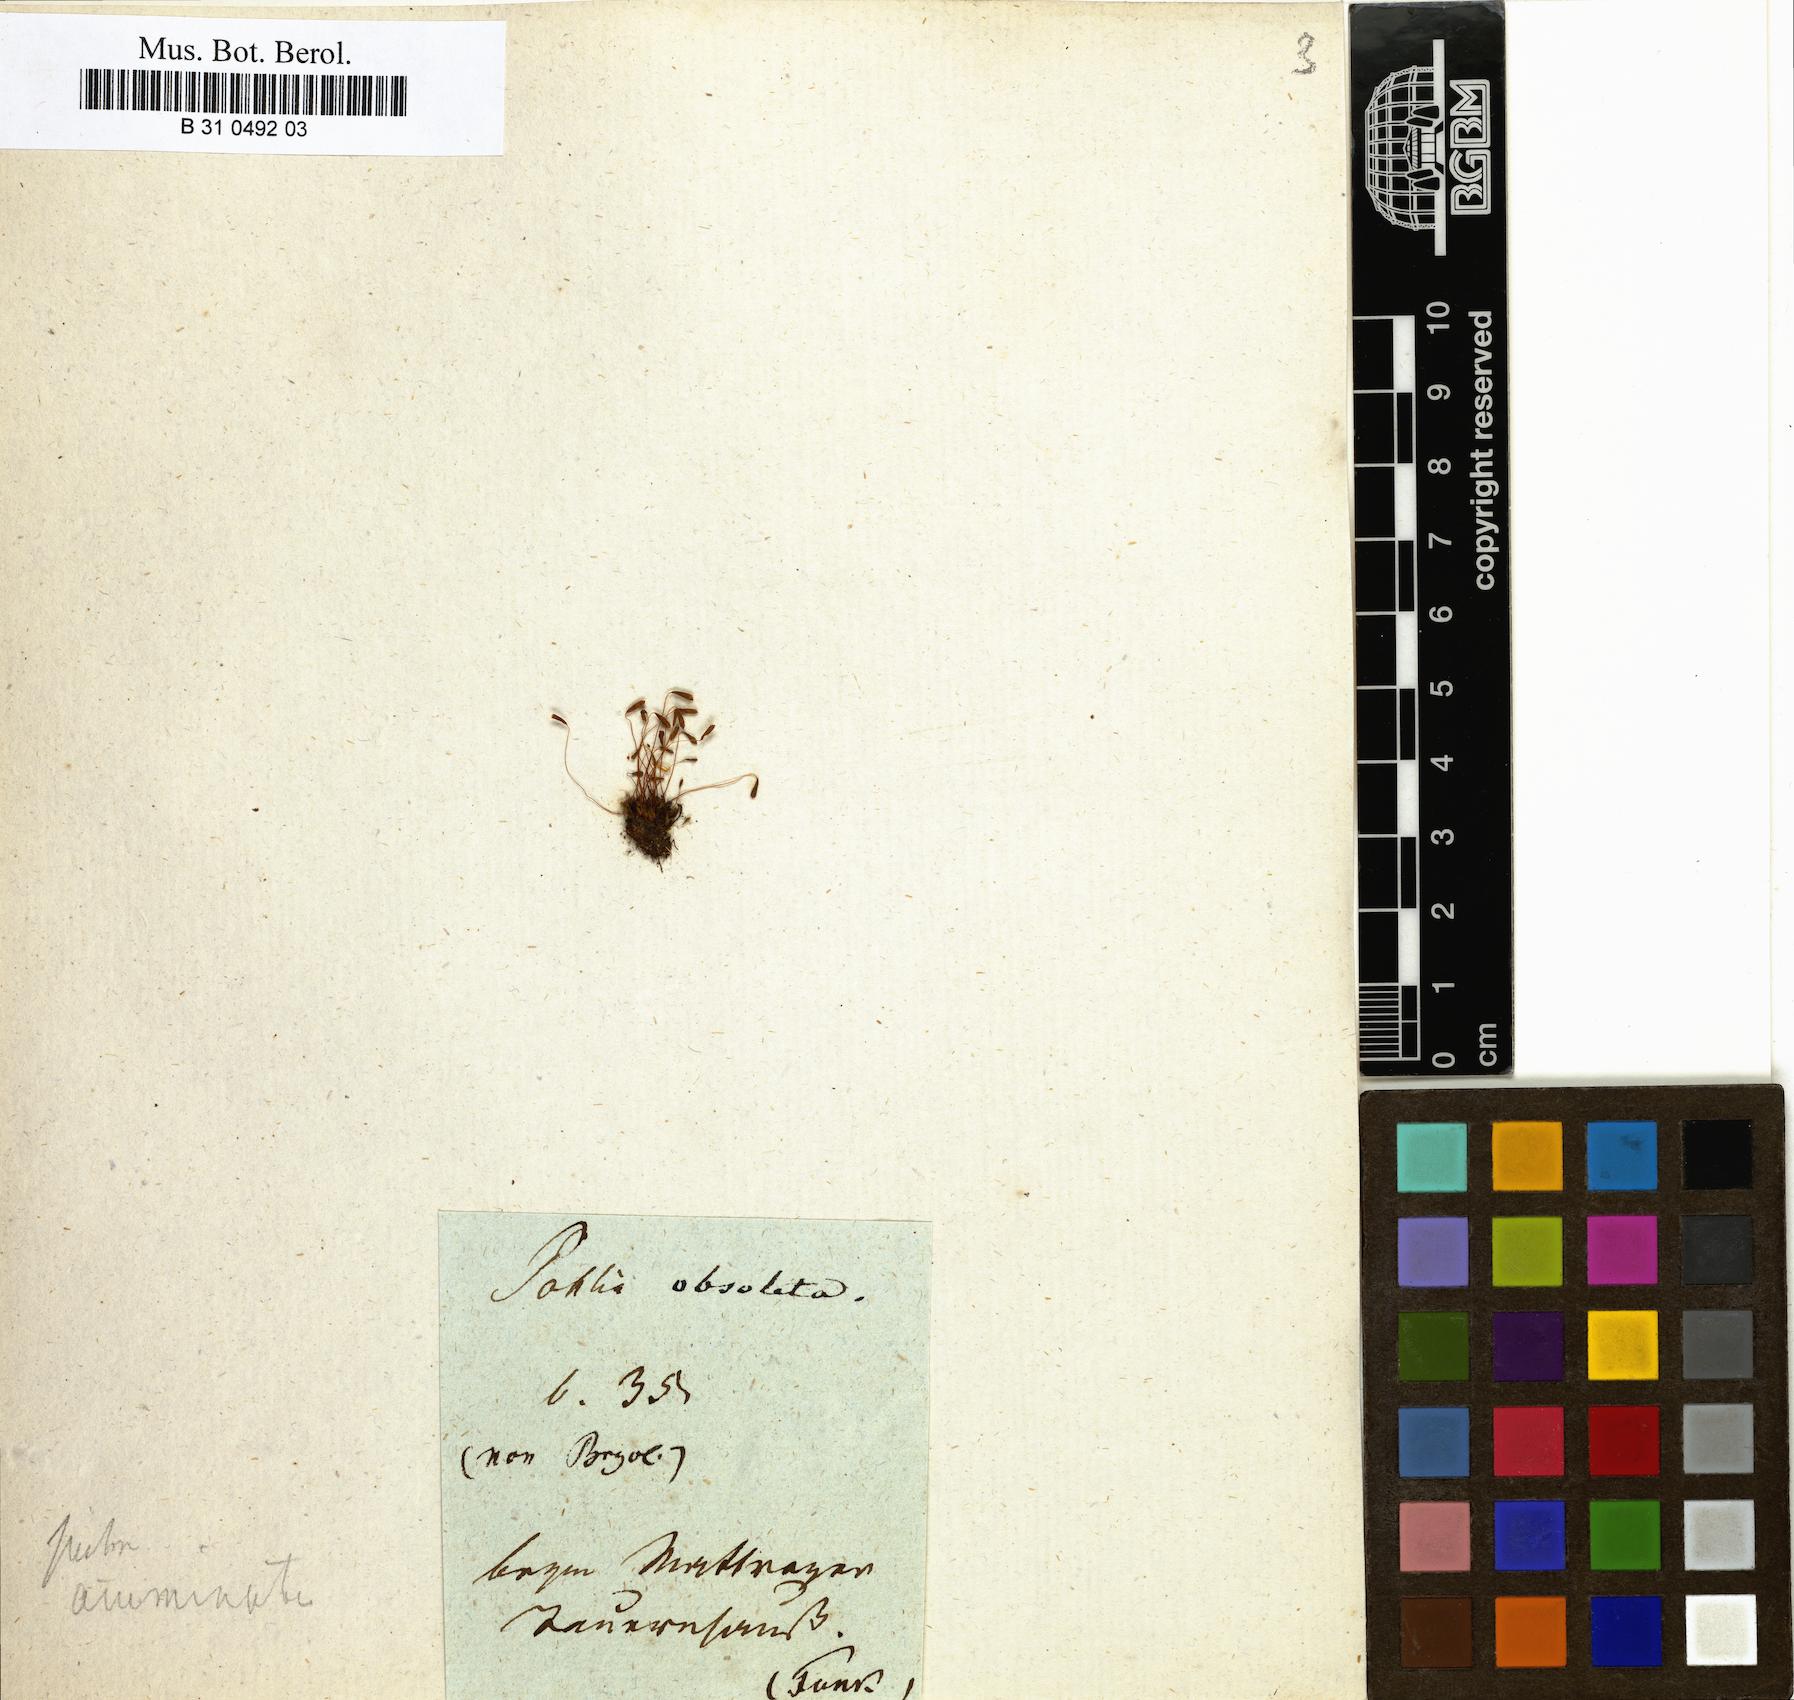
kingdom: Plantae
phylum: Bryophyta
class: Bryopsida
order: Bryales
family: Mniaceae
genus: Pohlia
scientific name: Pohlia elongata
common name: Long-fruited thread-moss
